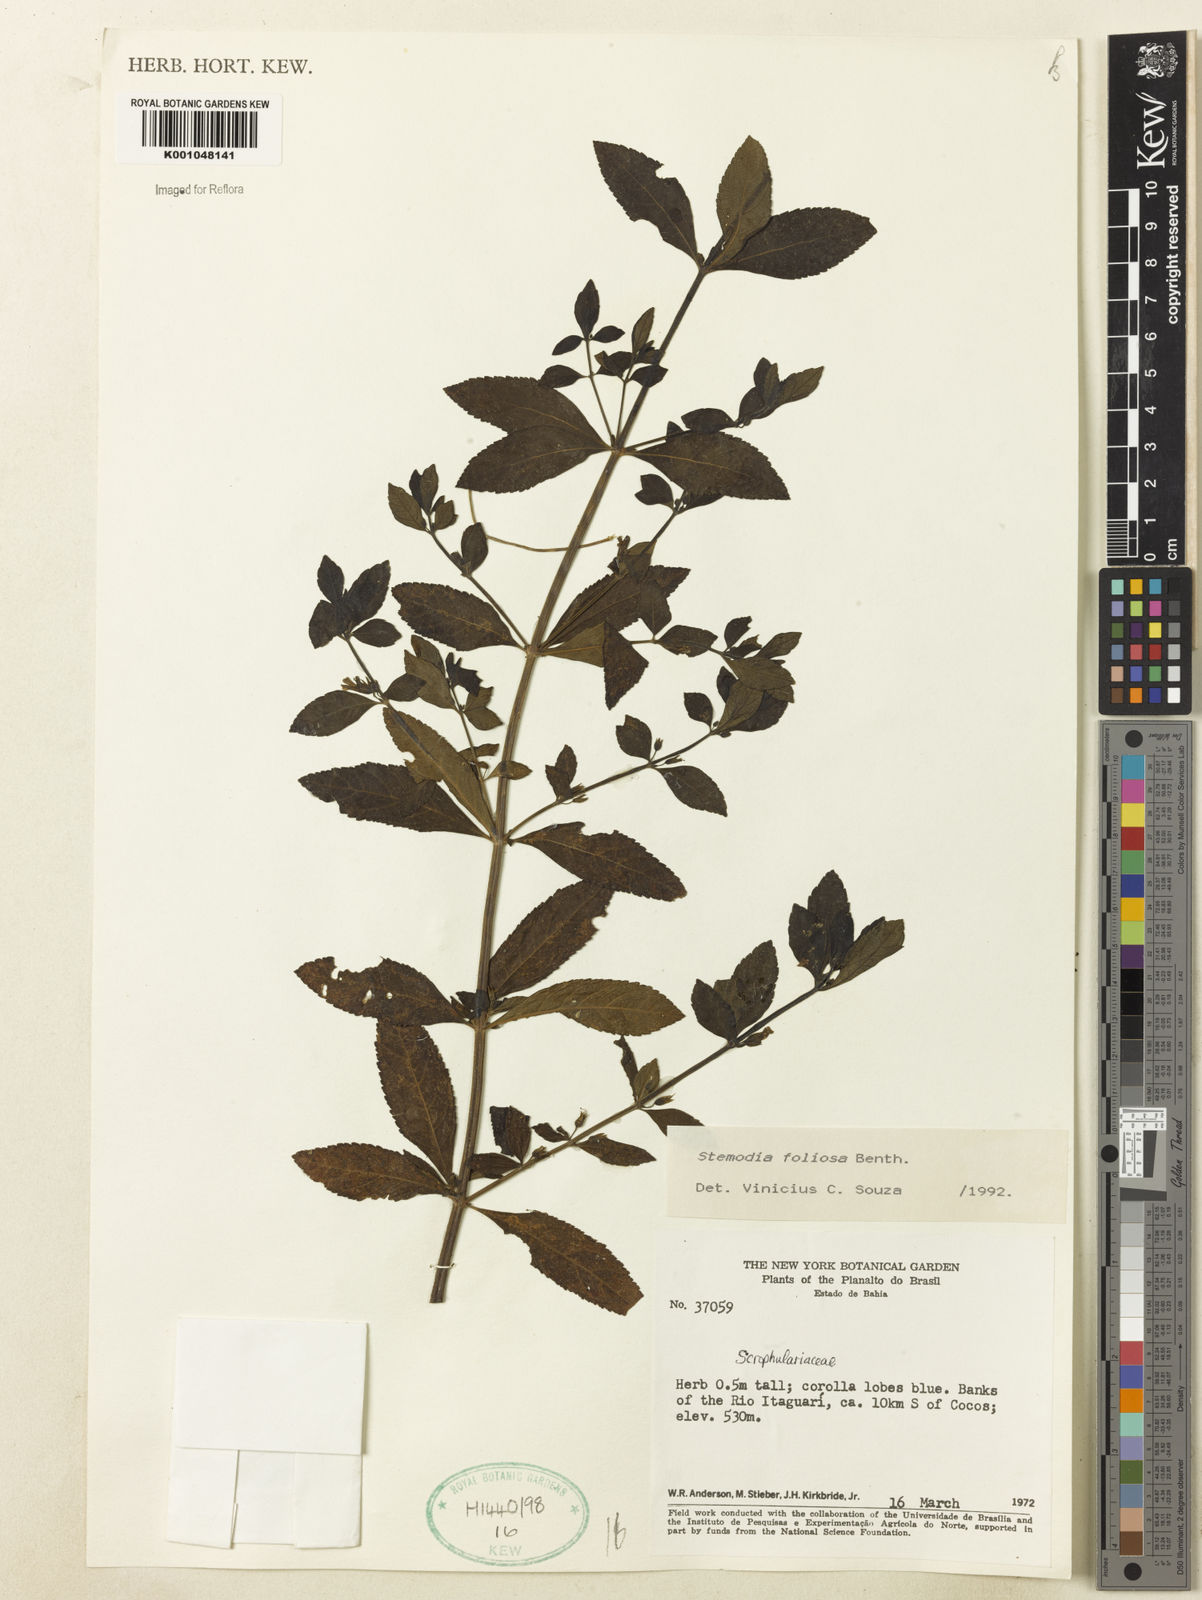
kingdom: Plantae
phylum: Tracheophyta
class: Magnoliopsida
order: Lamiales
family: Plantaginaceae
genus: Stemodia
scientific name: Stemodia foliosa
